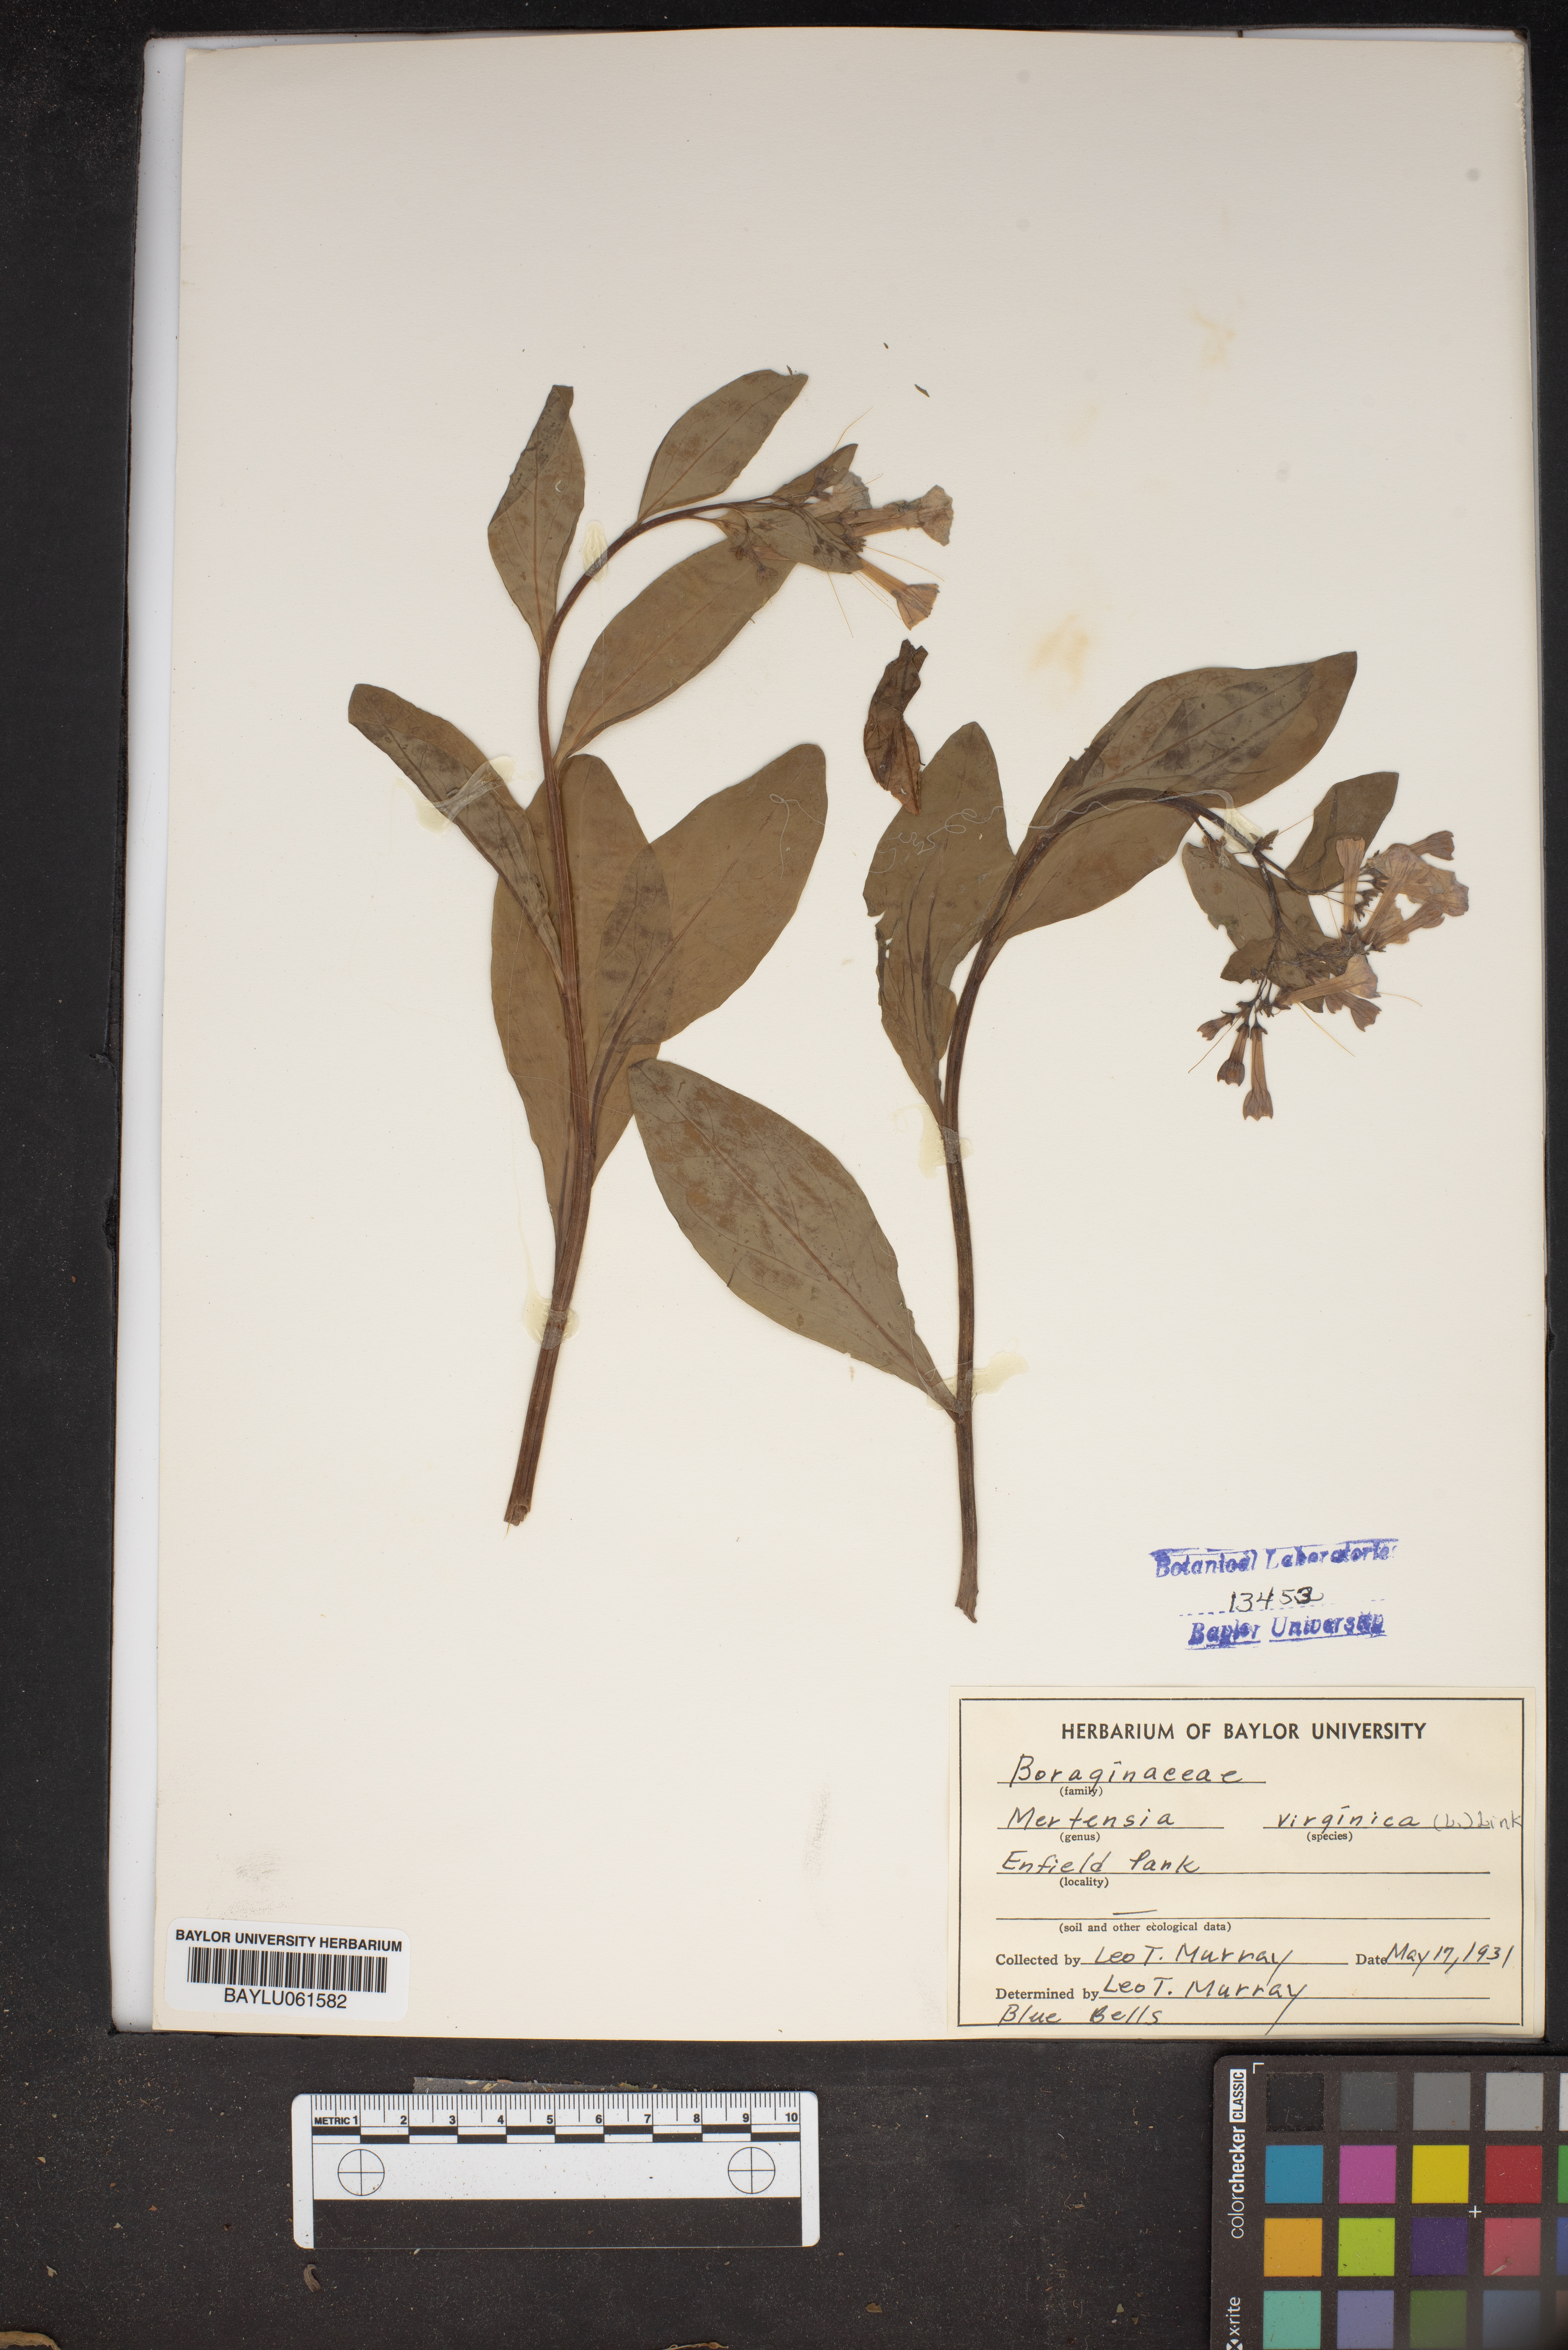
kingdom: Plantae
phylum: Tracheophyta
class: Magnoliopsida
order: Boraginales
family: Boraginaceae
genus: Mertensia
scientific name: Mertensia virginica
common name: Virginia bluebells
